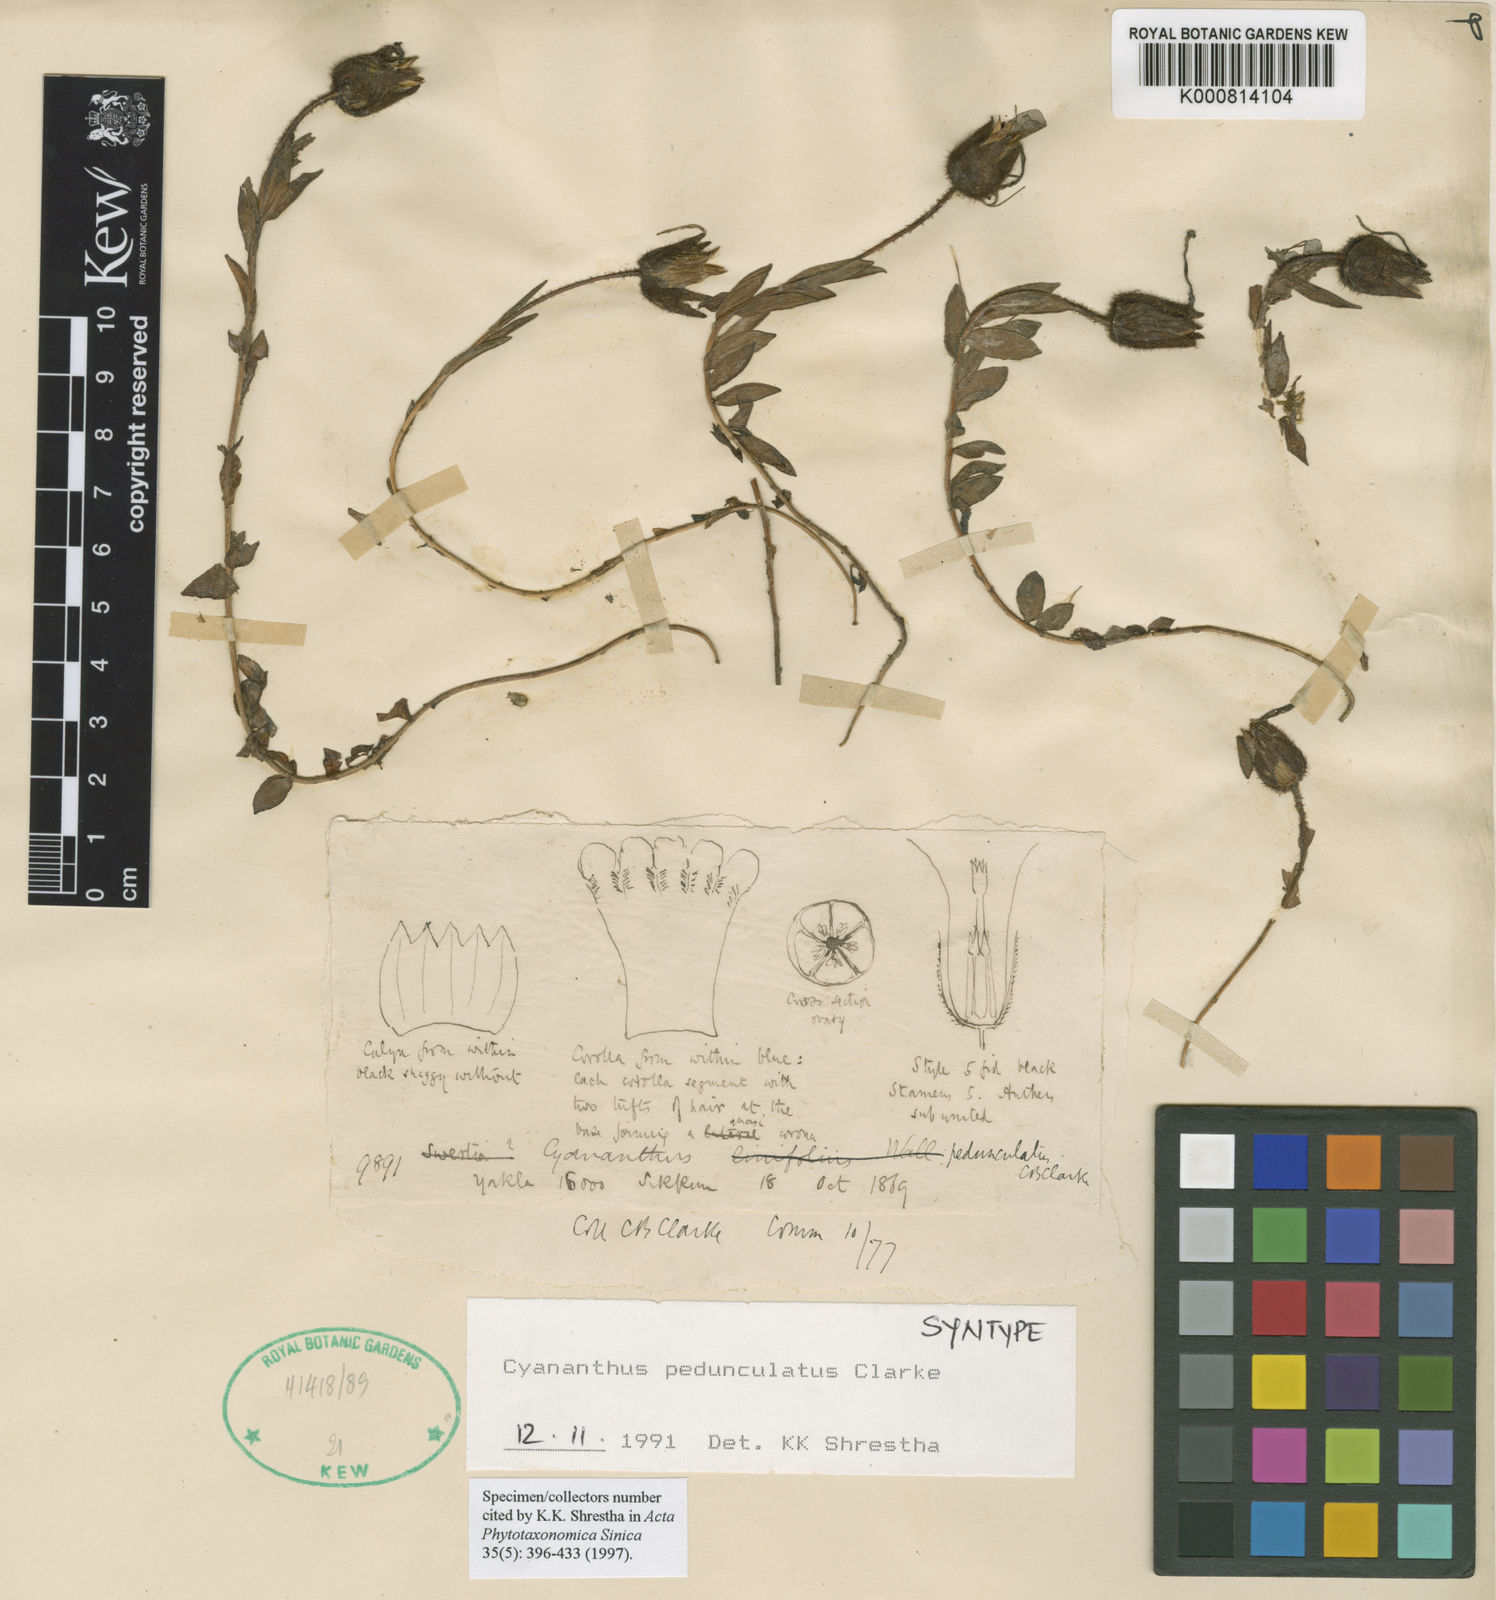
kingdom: Plantae
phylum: Tracheophyta
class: Magnoliopsida
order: Asterales
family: Campanulaceae
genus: Cyananthus
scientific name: Cyananthus pedunculatus
